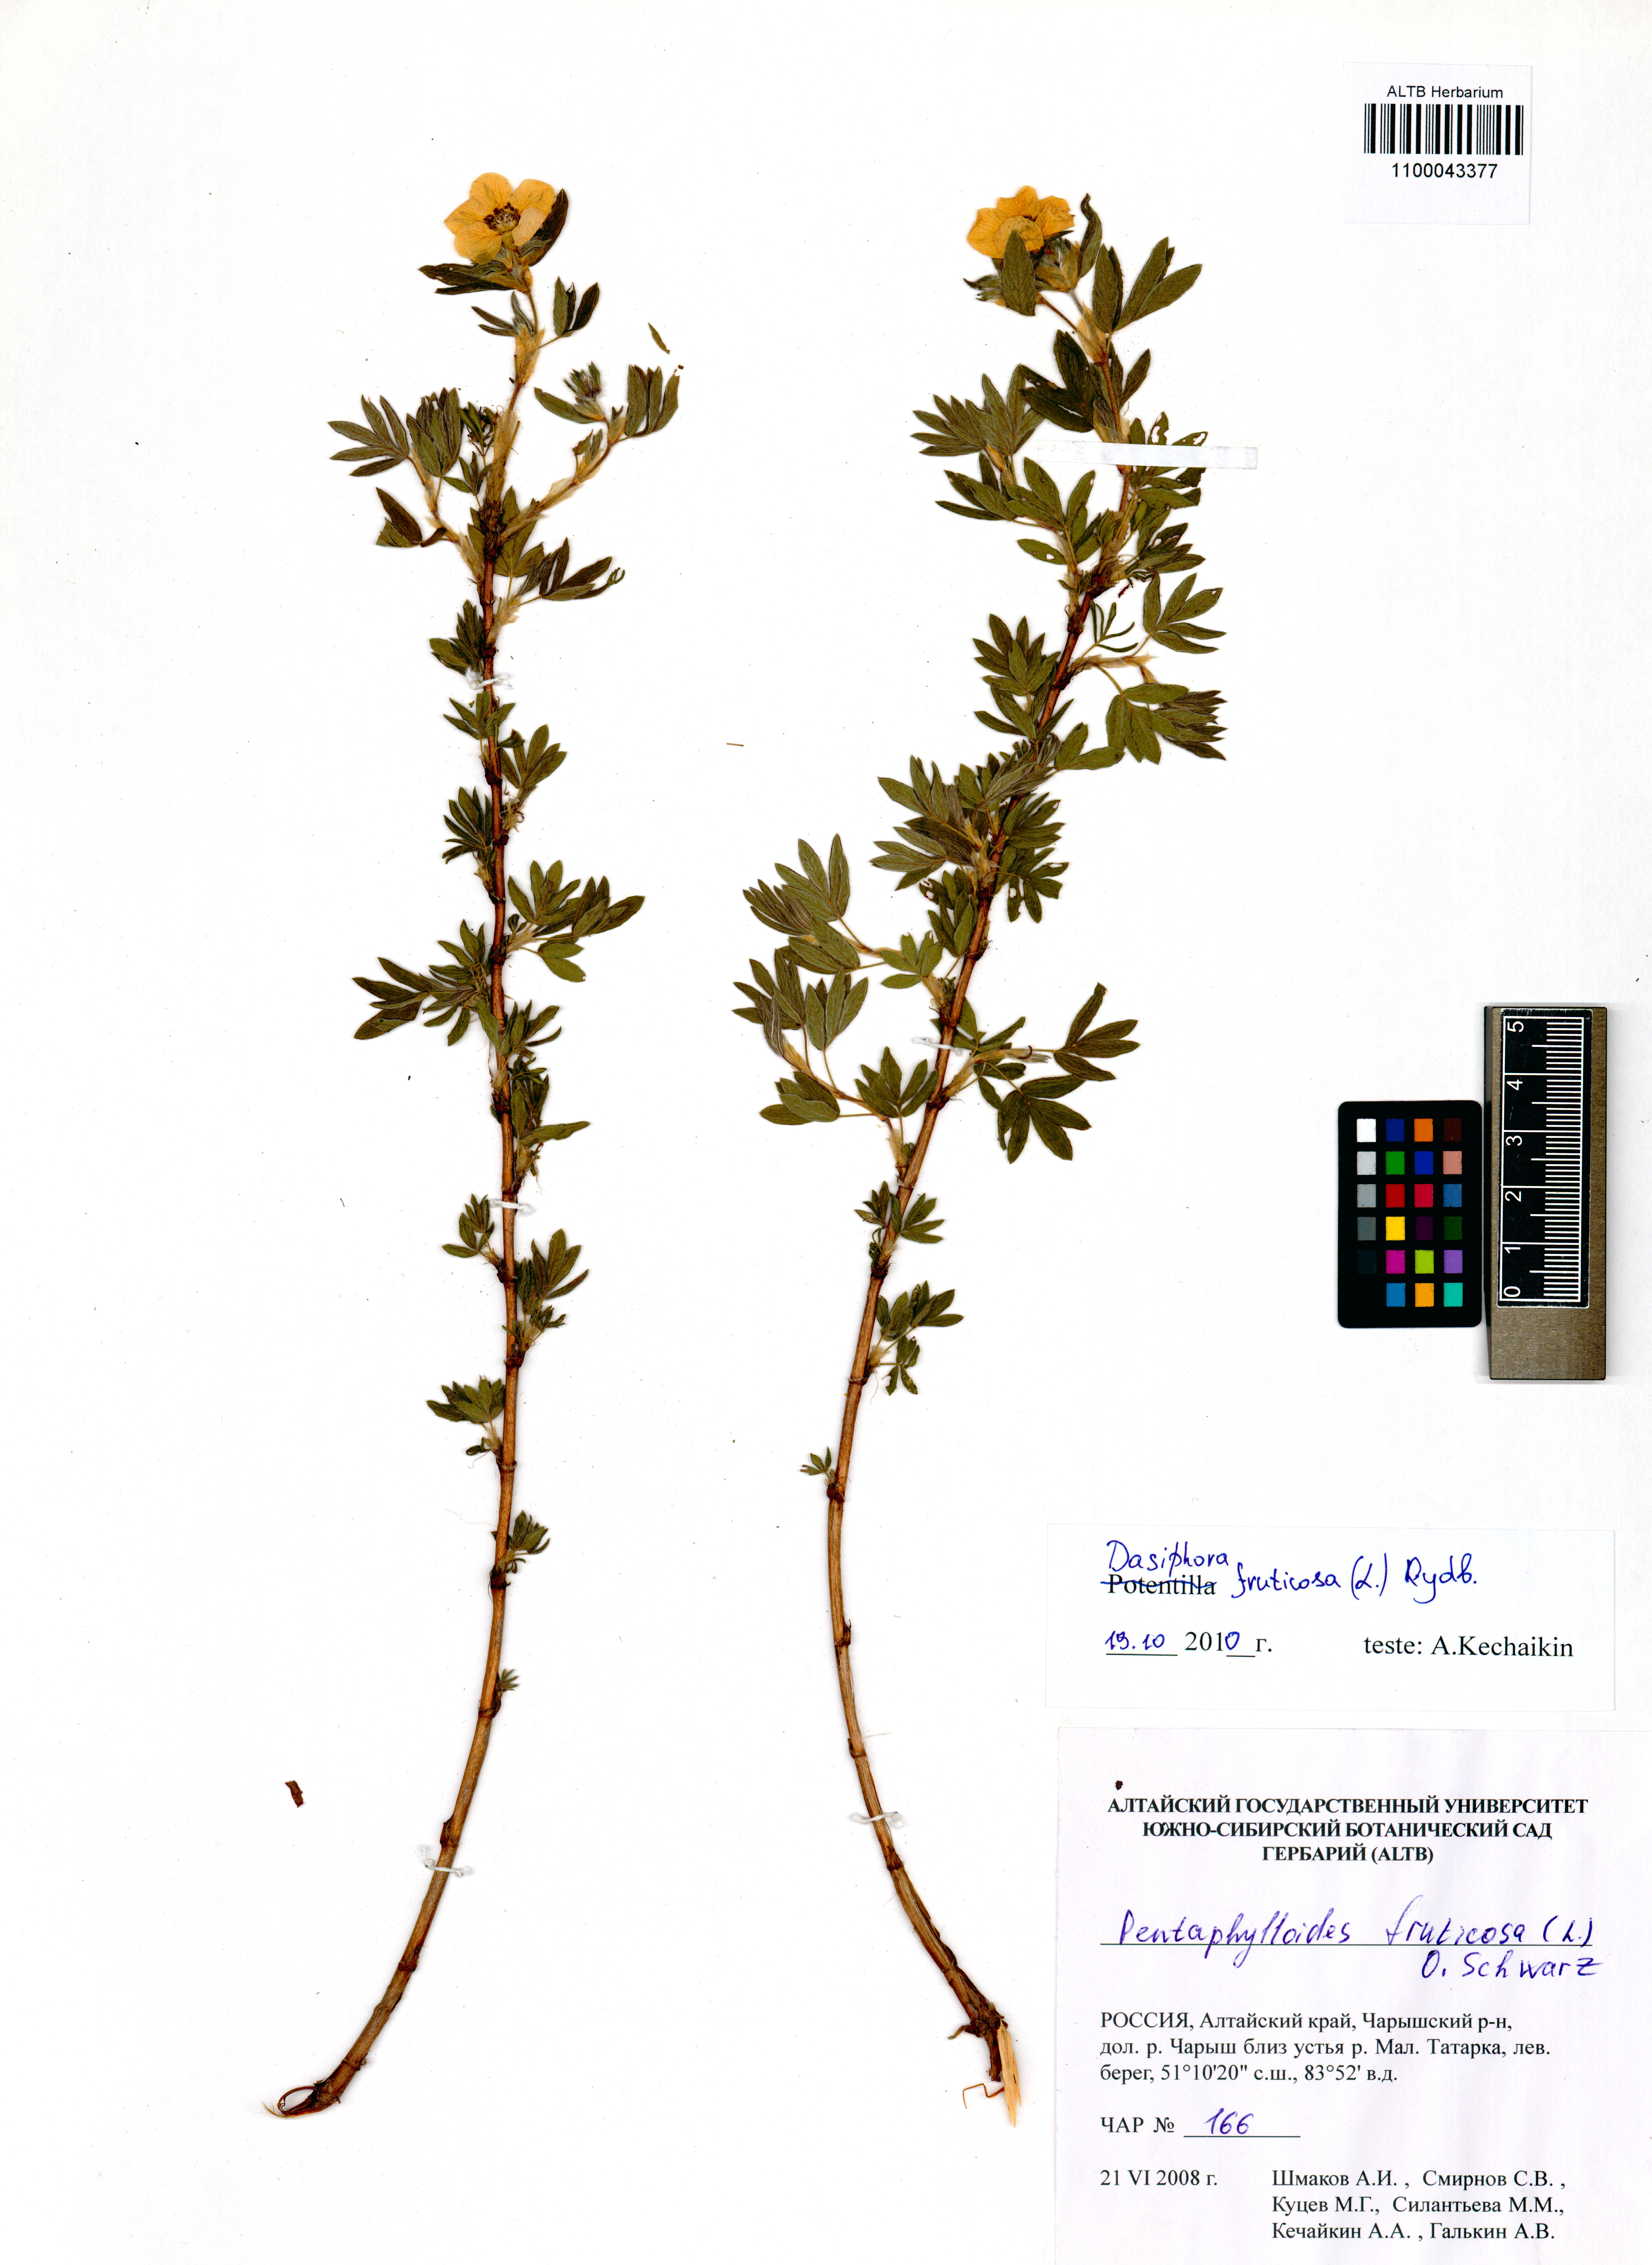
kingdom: Plantae
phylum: Tracheophyta
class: Magnoliopsida
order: Rosales
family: Rosaceae
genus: Dasiphora
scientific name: Dasiphora fruticosa
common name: Shrubby cinquefoil
